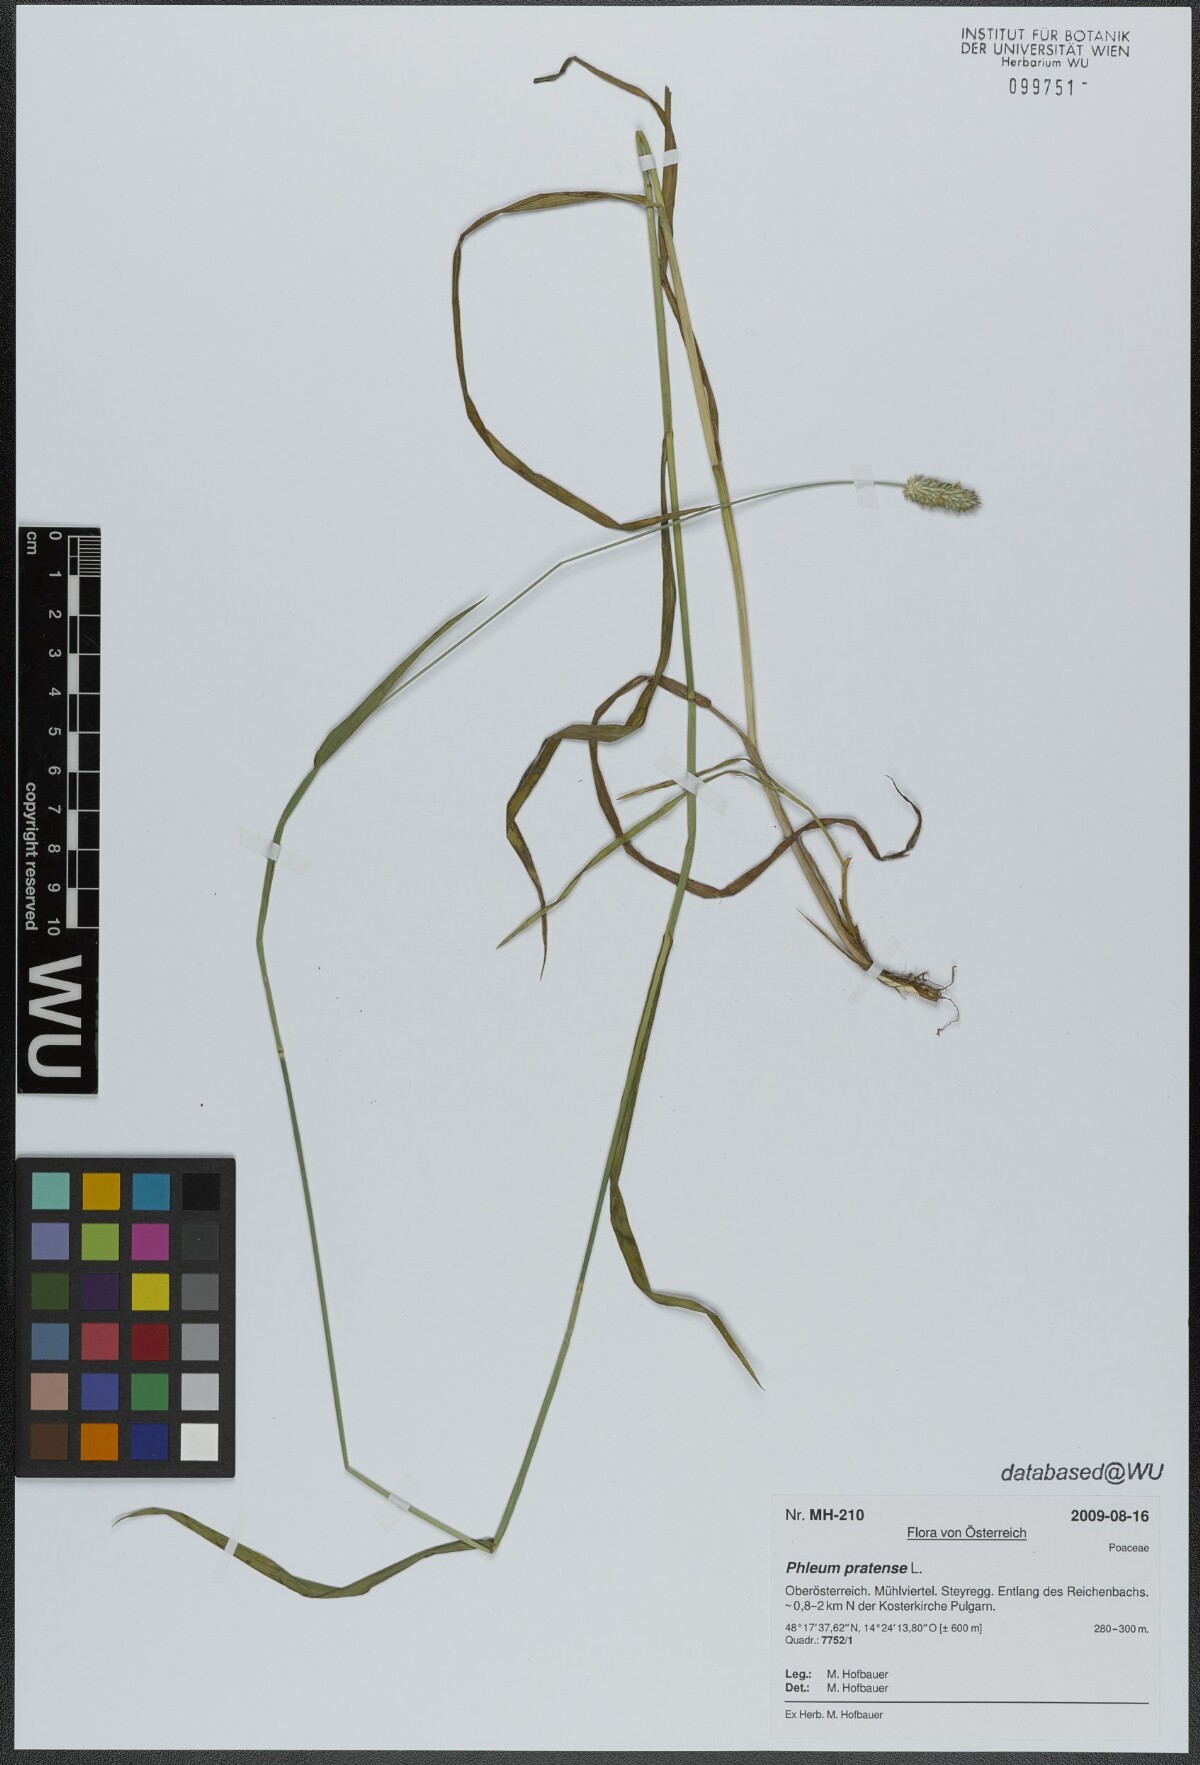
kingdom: Plantae
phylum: Tracheophyta
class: Liliopsida
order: Poales
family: Poaceae
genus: Phleum
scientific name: Phleum pratense
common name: Timothy grass
